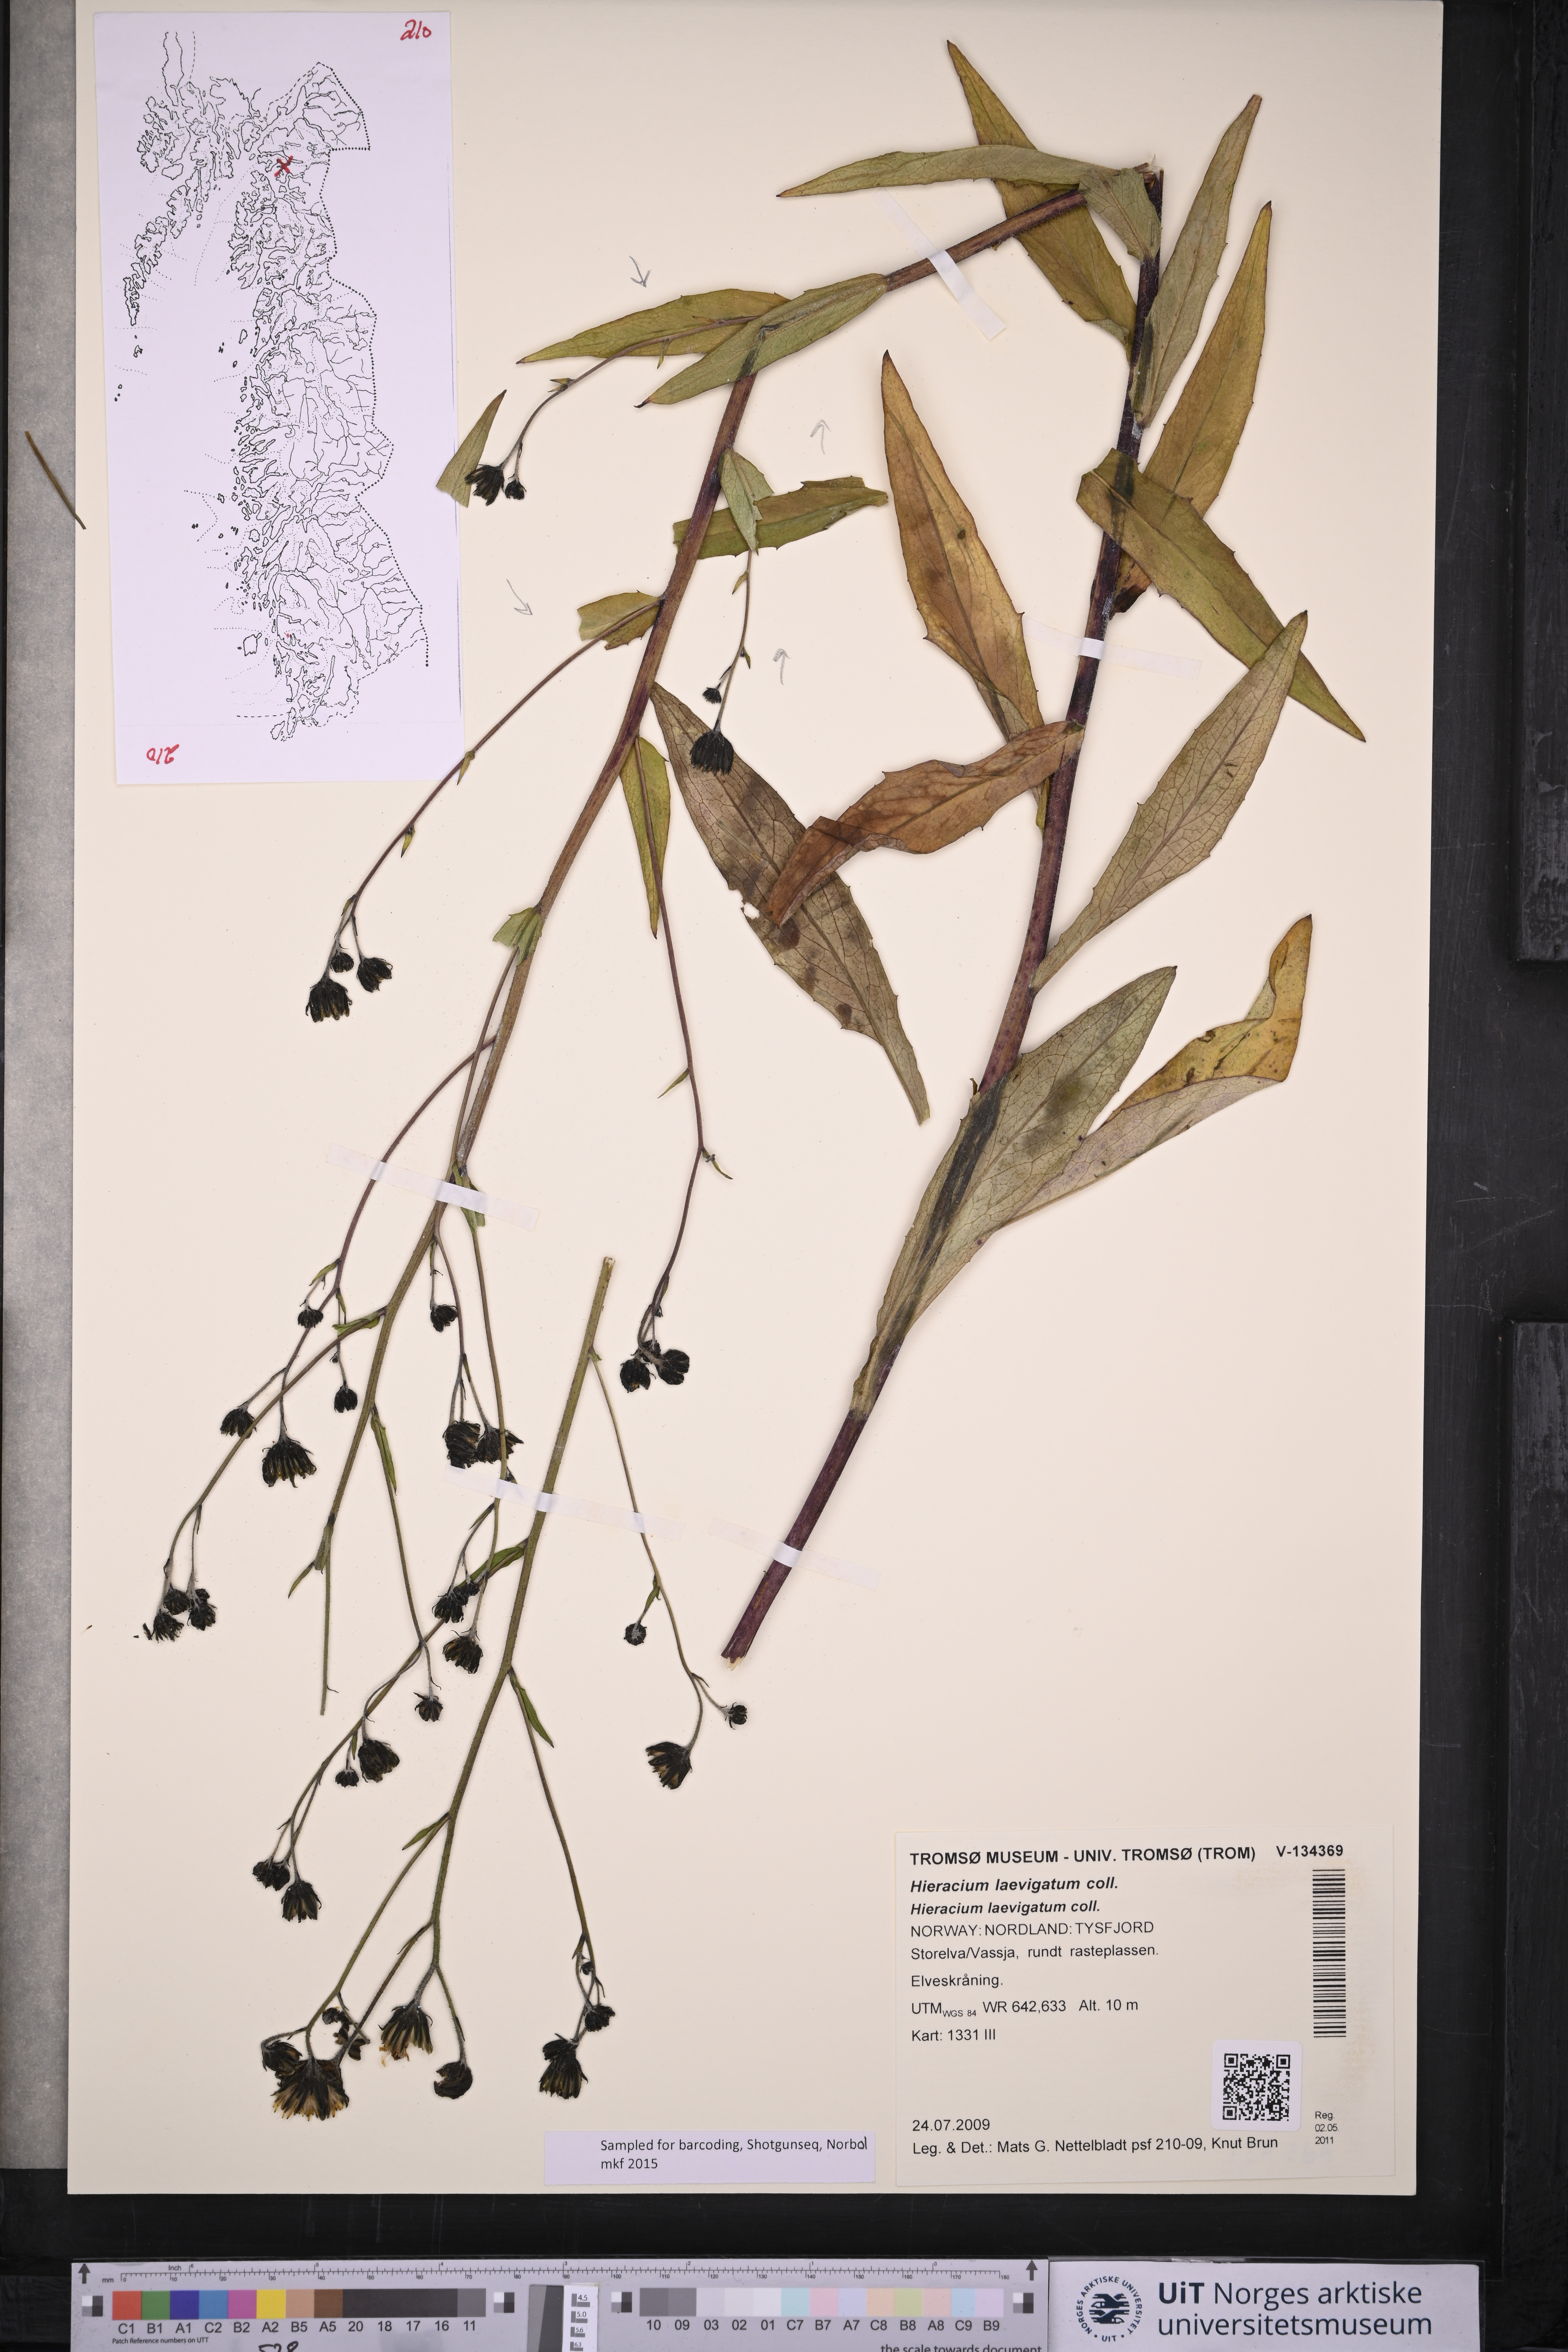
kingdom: Plantae
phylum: Tracheophyta
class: Magnoliopsida
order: Asterales
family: Asteraceae
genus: Hieracium
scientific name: Hieracium laevigatum
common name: Smooth hawkweed
